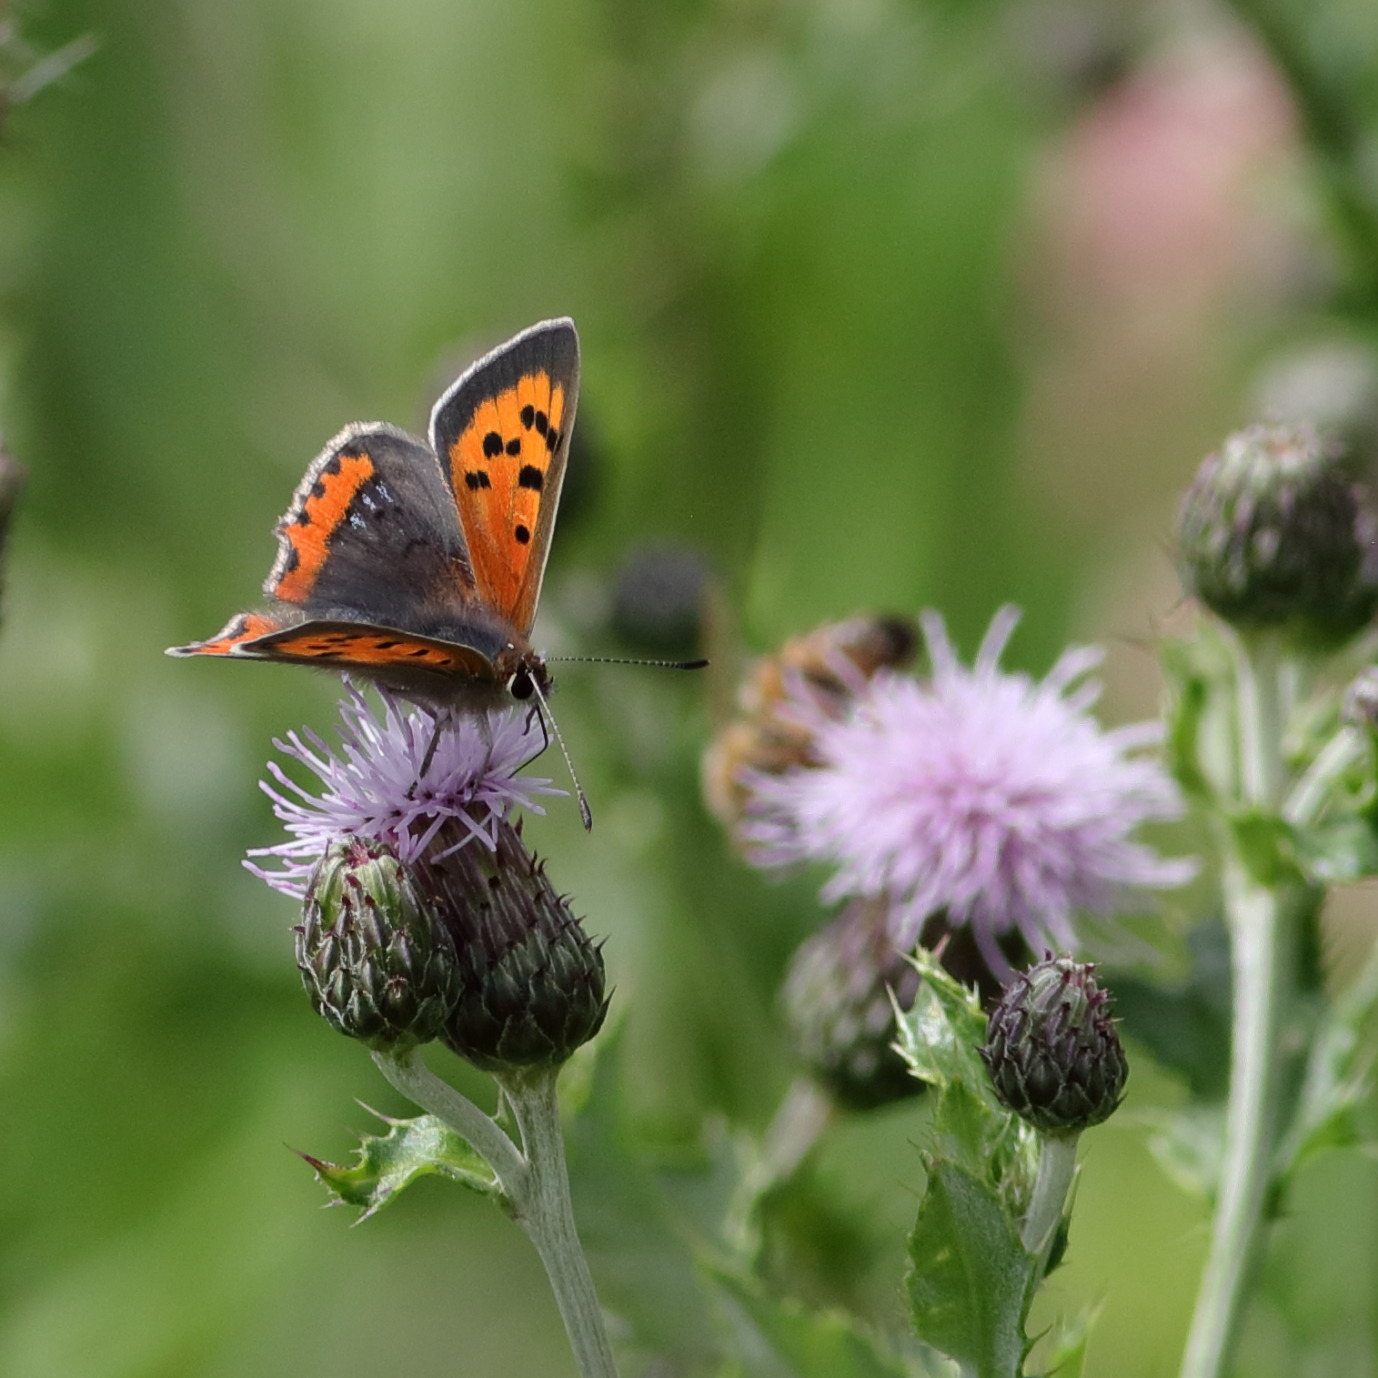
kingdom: Animalia
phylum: Arthropoda
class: Insecta
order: Lepidoptera
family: Lycaenidae
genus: Lycaena
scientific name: Lycaena phlaeas
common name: Lille ildfugl
